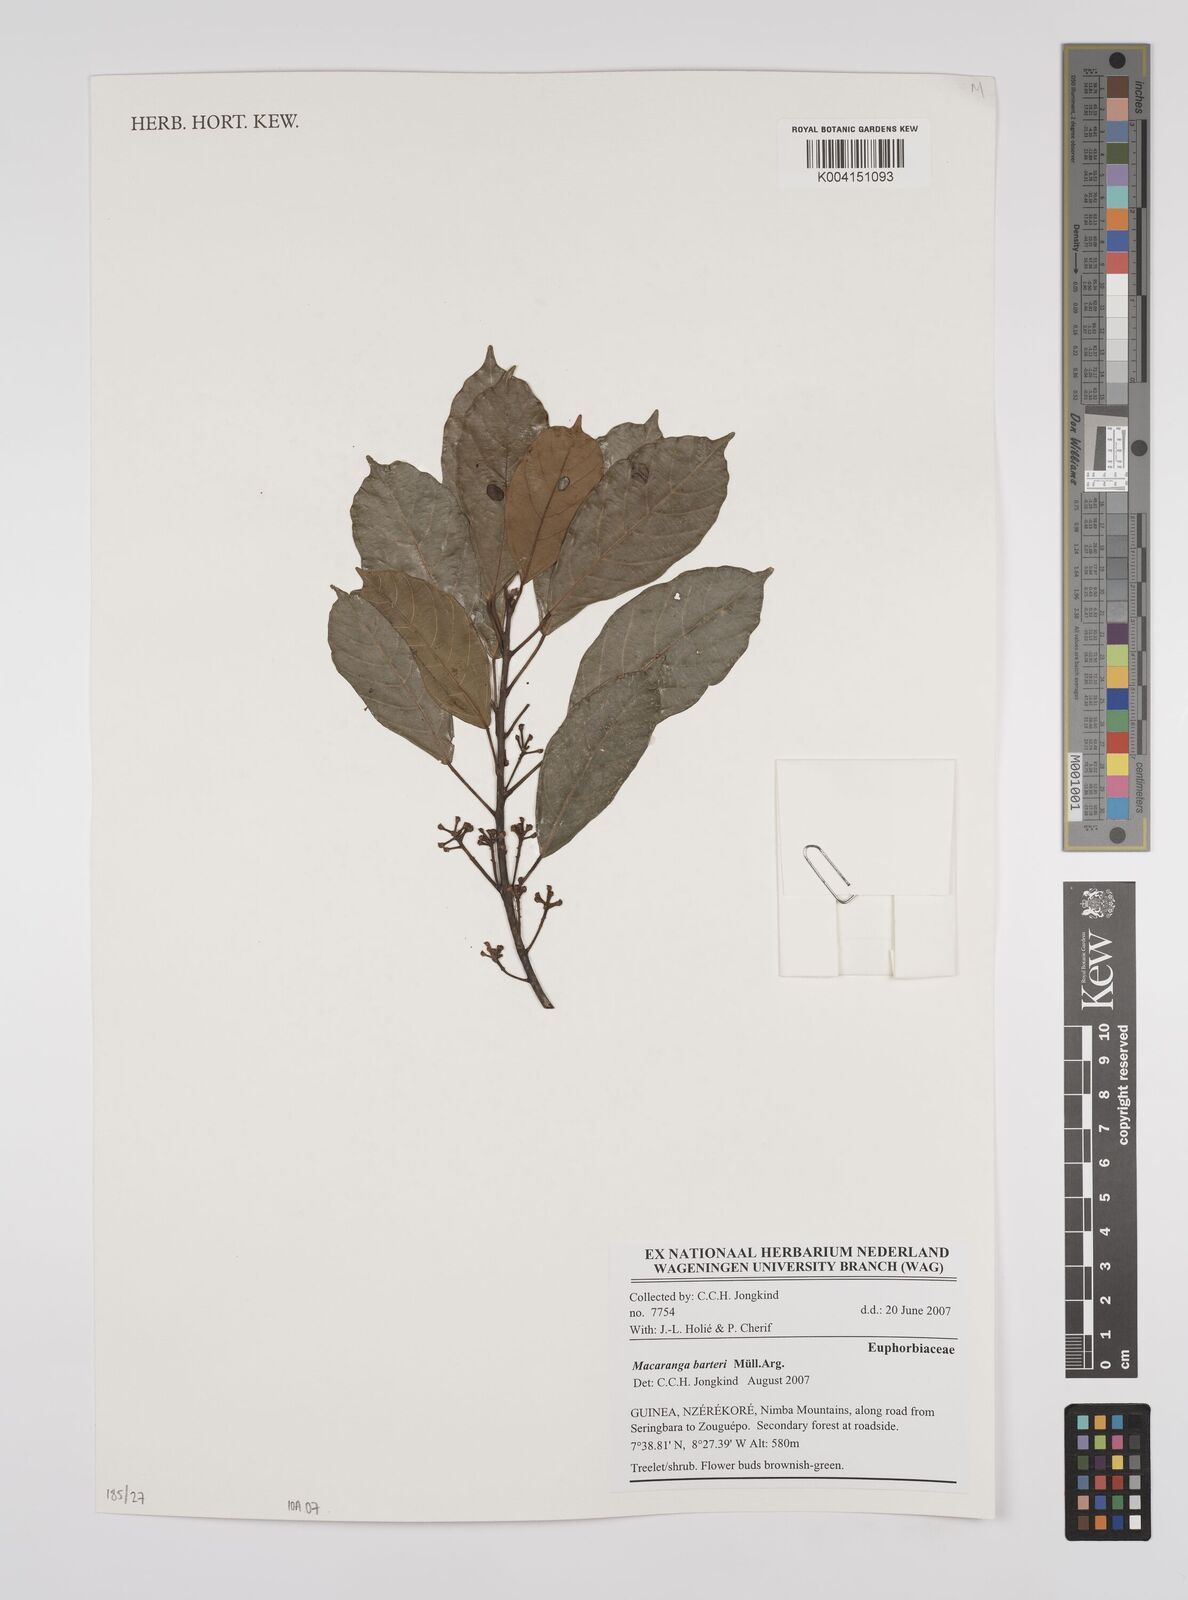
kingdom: Plantae
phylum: Tracheophyta
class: Magnoliopsida
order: Malpighiales
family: Euphorbiaceae
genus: Macaranga
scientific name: Macaranga barteri
